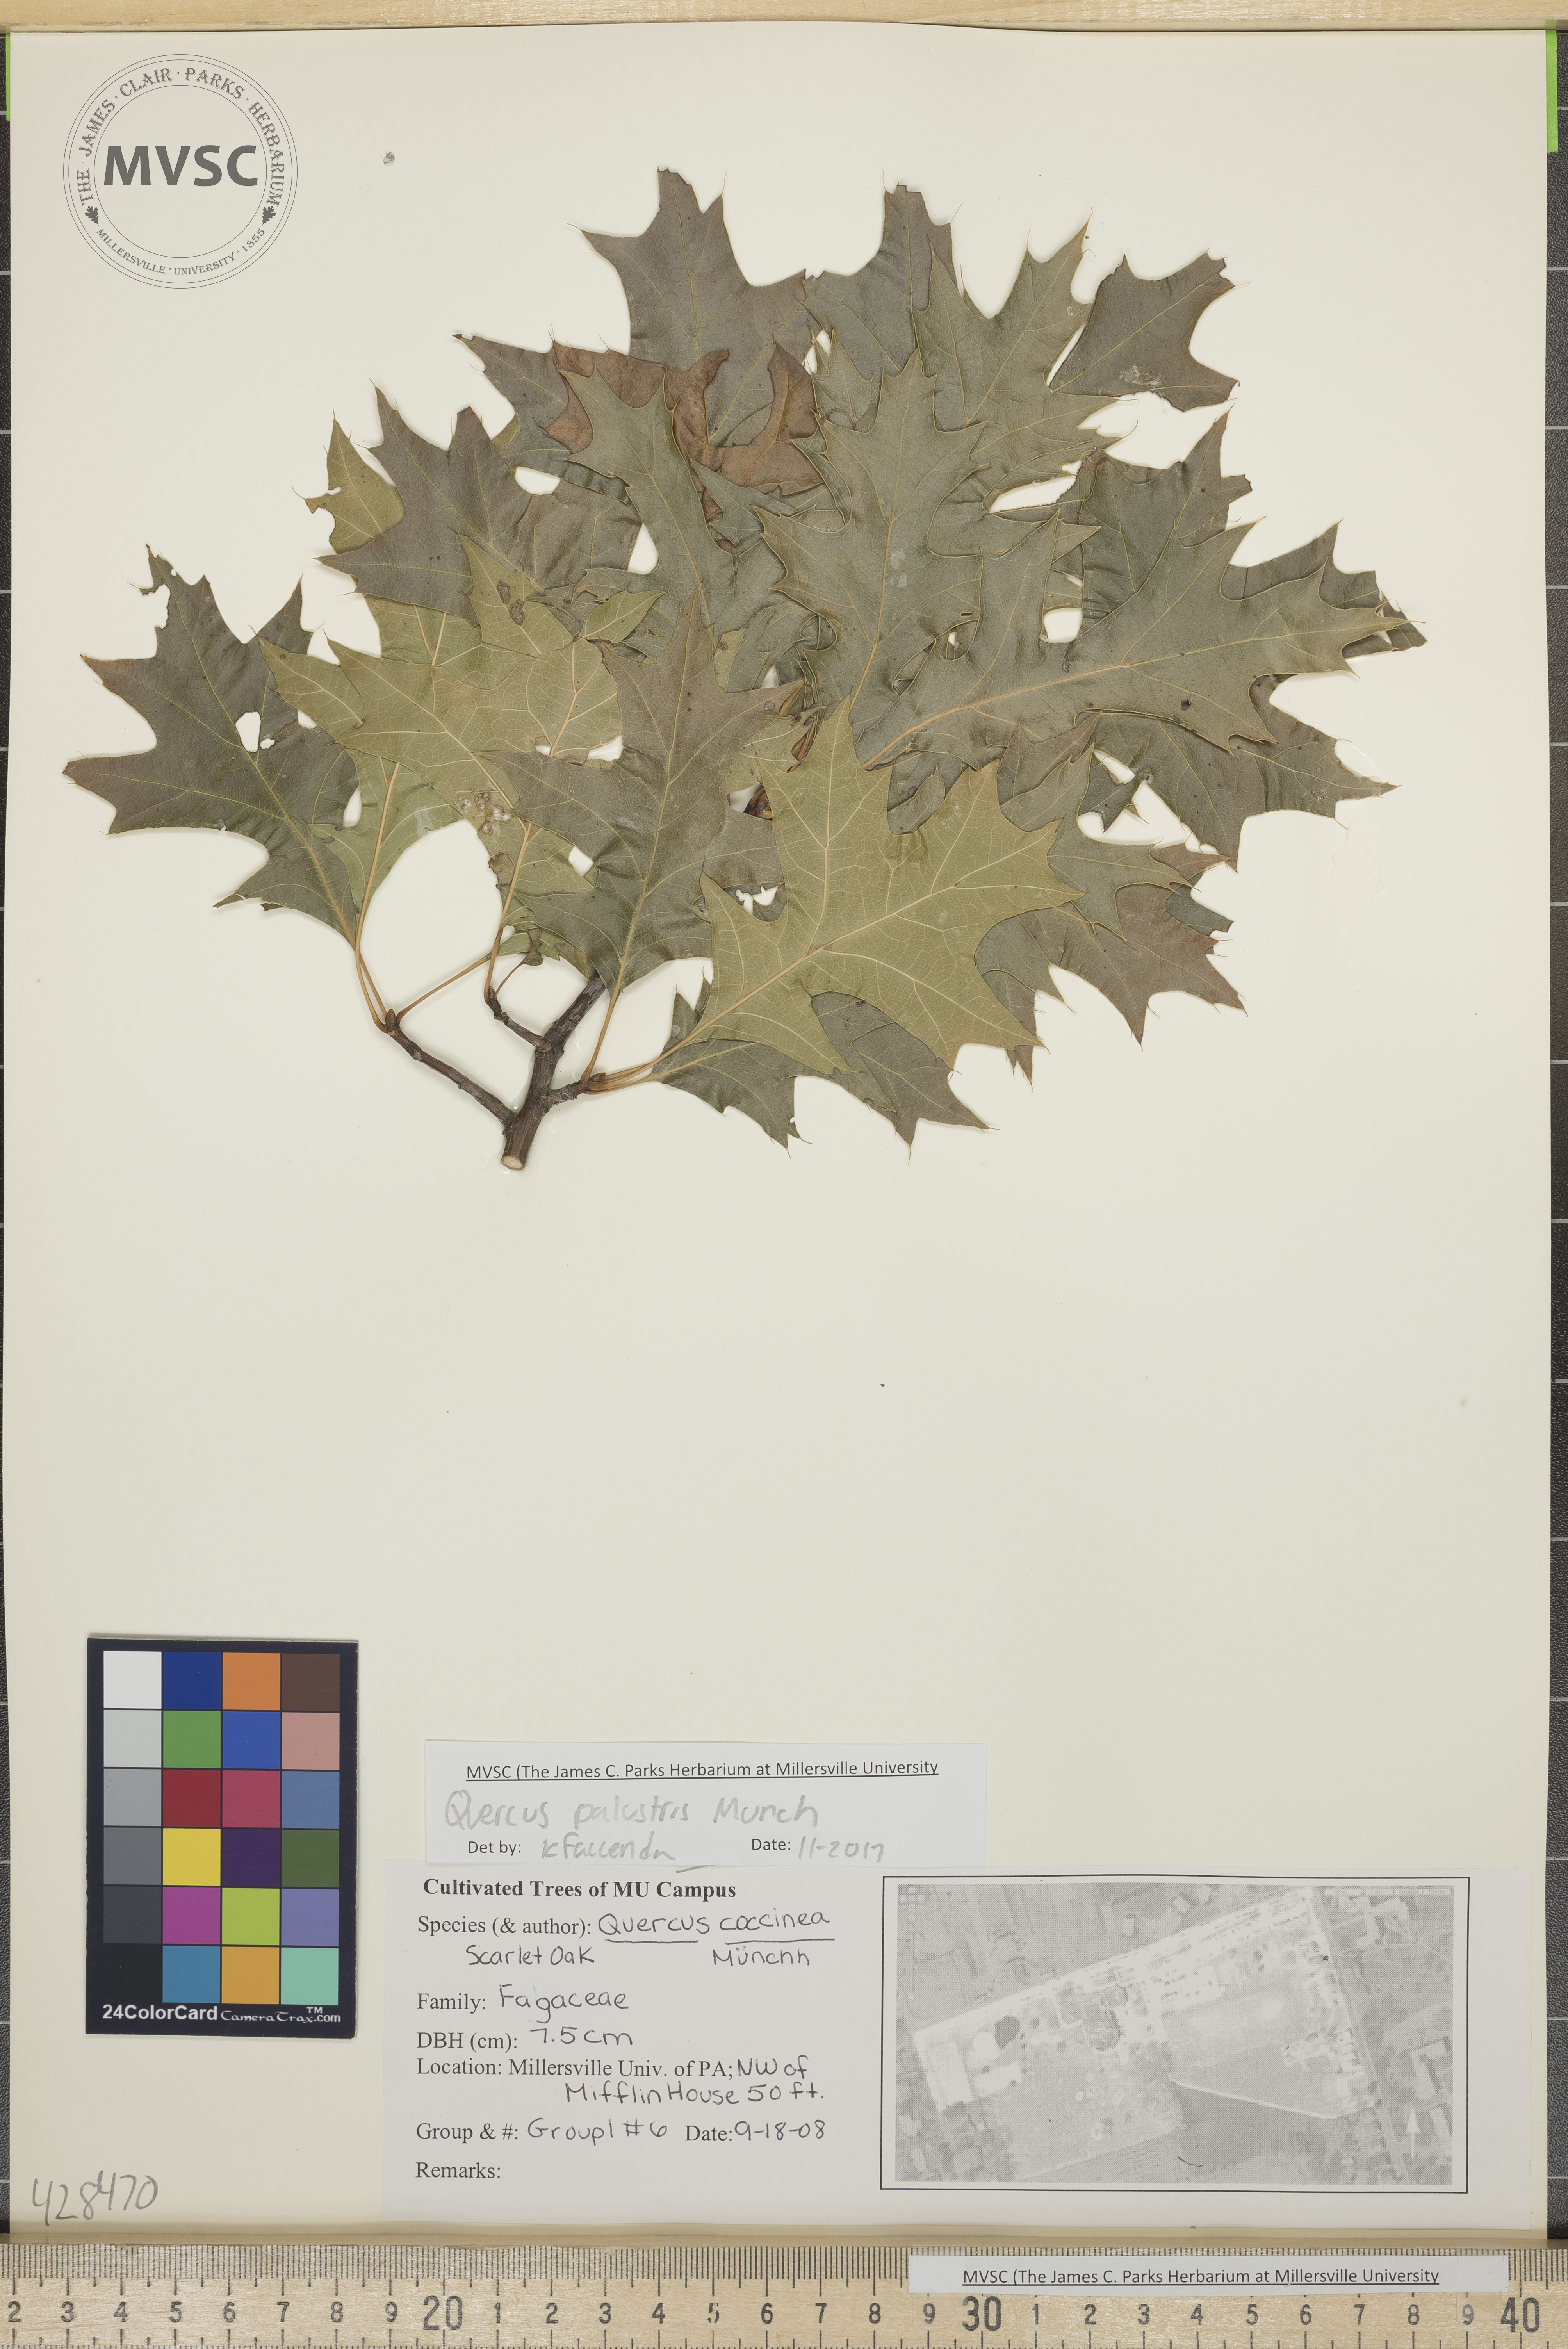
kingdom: Plantae
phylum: Tracheophyta
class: Magnoliopsida
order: Fagales
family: Fagaceae
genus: Quercus
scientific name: Quercus palustris
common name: Pin oak
